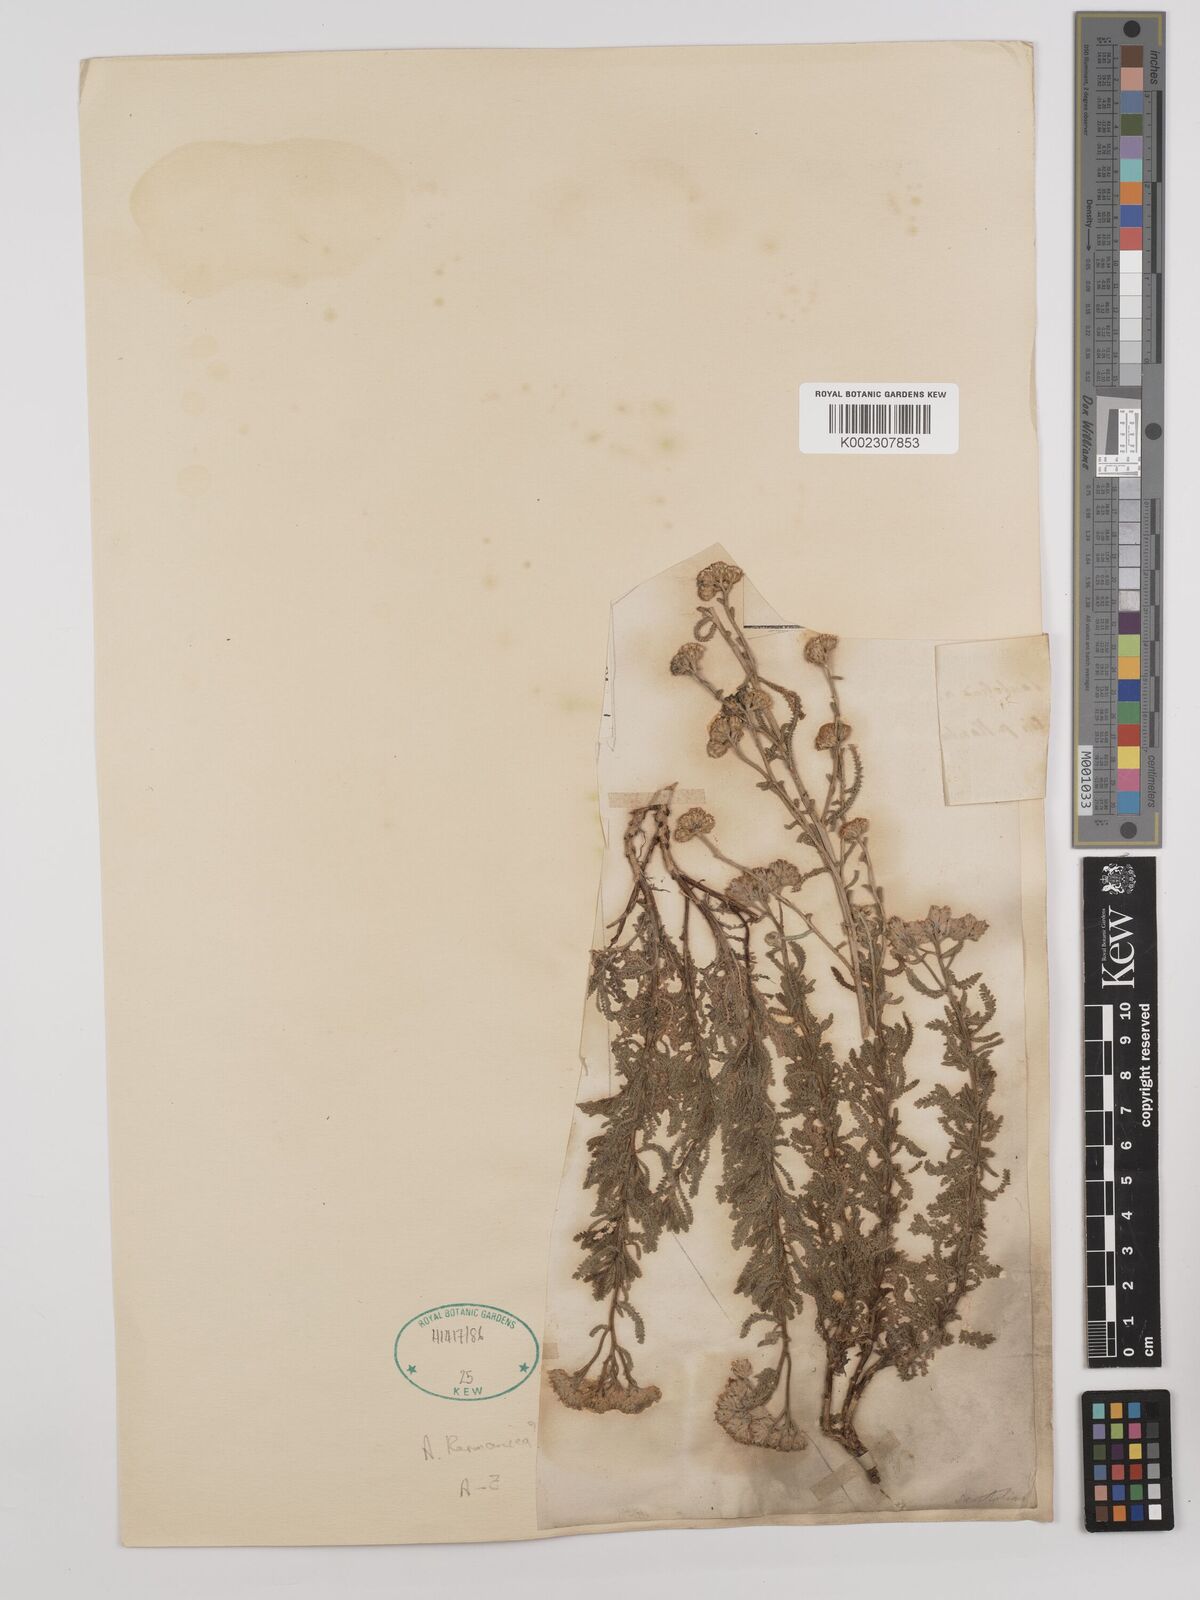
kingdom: Plantae
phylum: Tracheophyta
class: Magnoliopsida
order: Asterales
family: Asteraceae
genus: Achillea
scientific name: Achillea wilhelmsii
